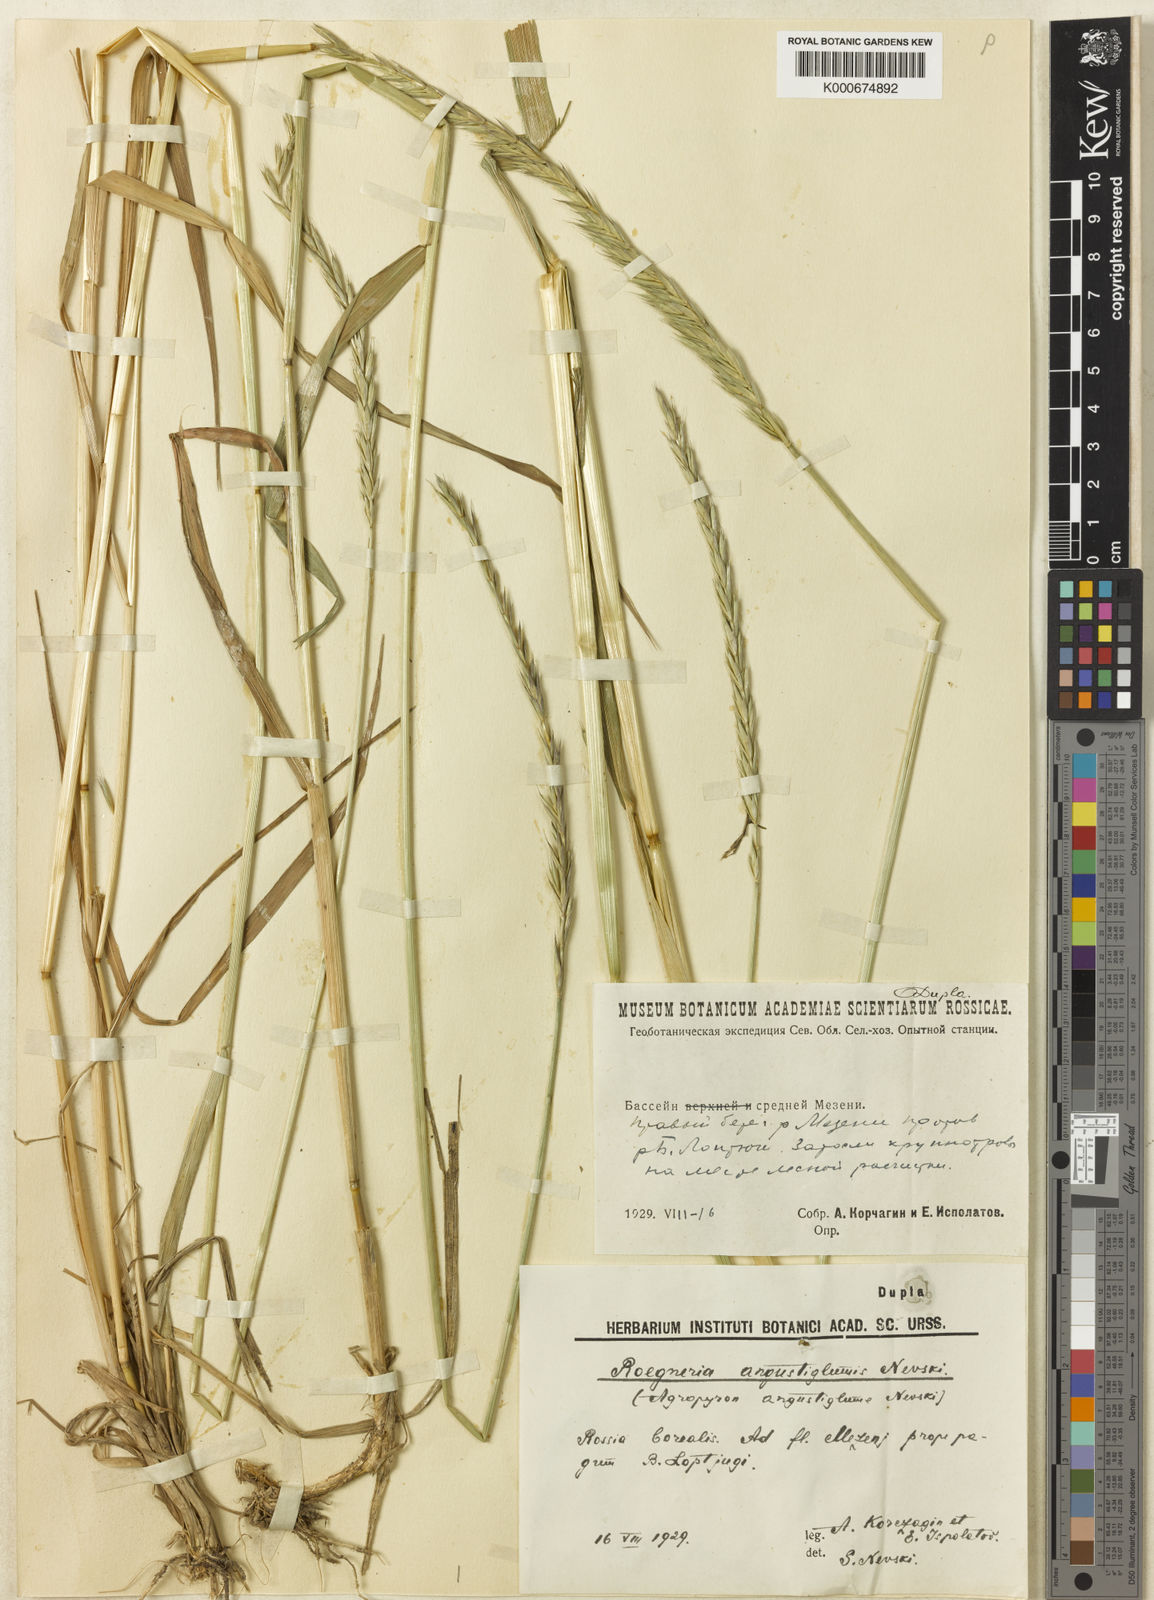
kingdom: Plantae
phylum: Tracheophyta
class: Liliopsida
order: Poales
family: Poaceae
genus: Elymus
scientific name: Elymus mutabilis
